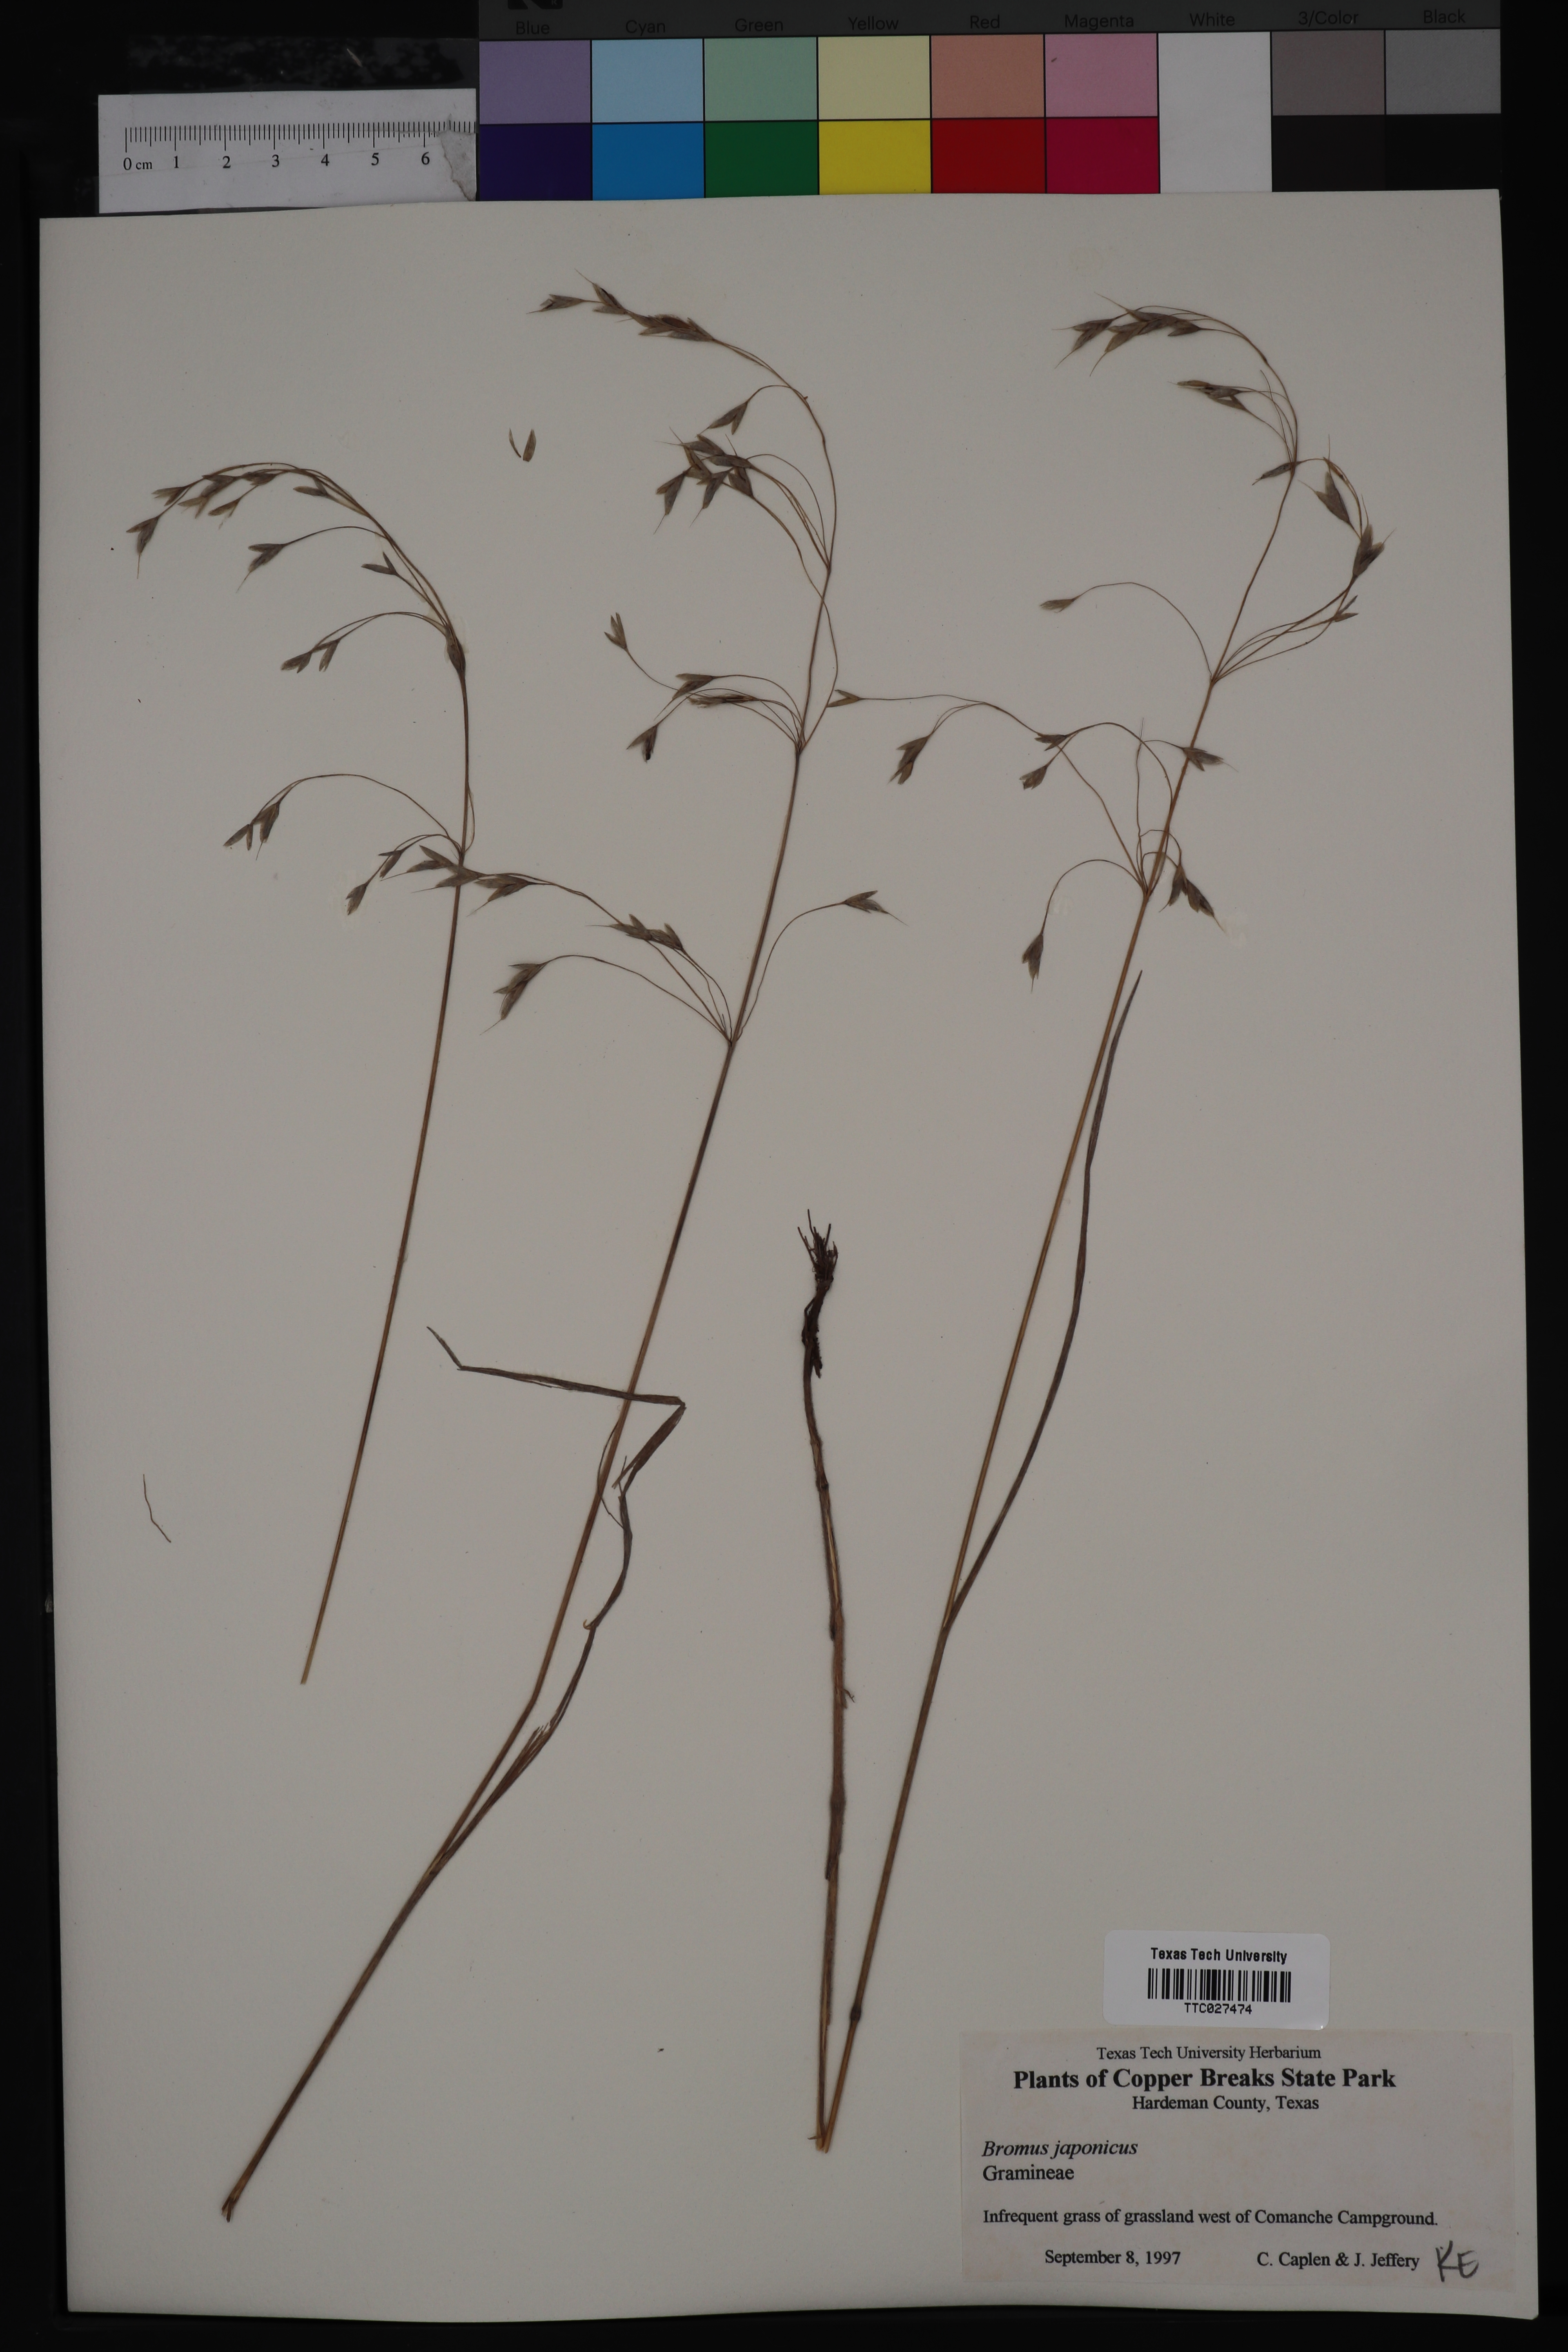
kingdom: Plantae
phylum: Tracheophyta
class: Liliopsida
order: Poales
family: Poaceae
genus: Bromus
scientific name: Bromus japonicus
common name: Japanese brome
